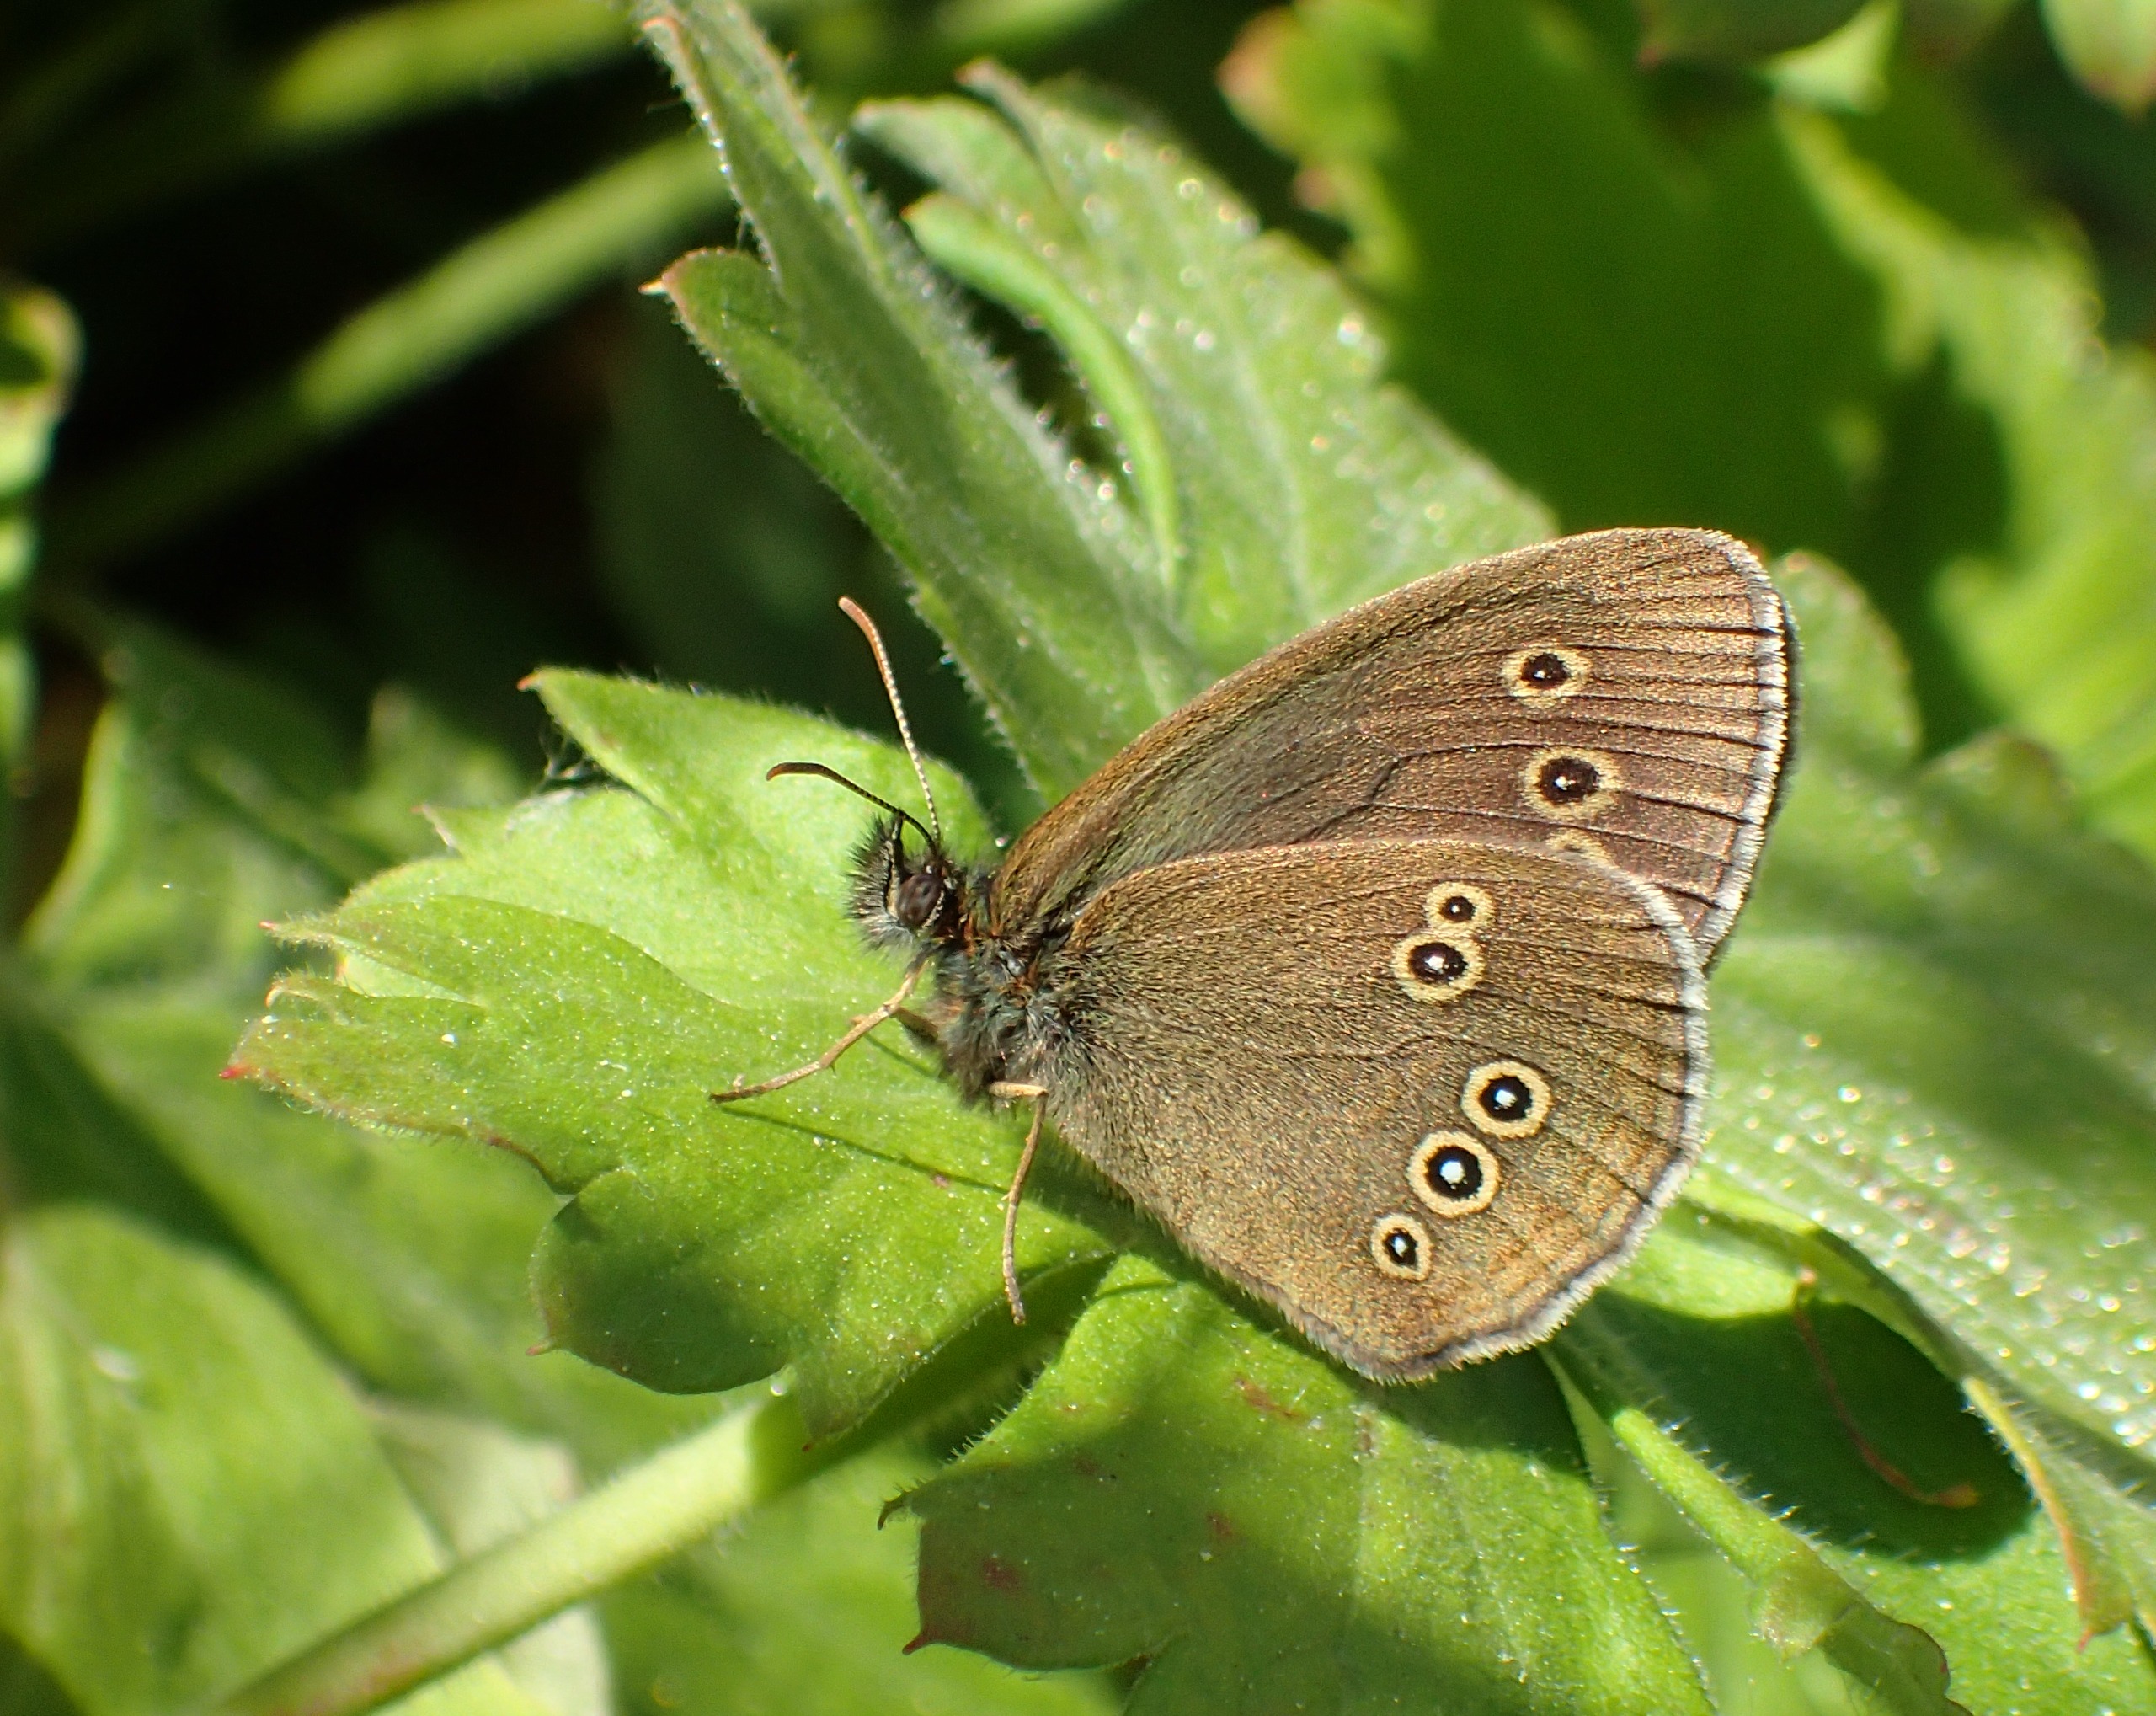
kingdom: Animalia
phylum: Arthropoda
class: Insecta
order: Lepidoptera
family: Nymphalidae
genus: Aphantopus
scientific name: Aphantopus hyperantus
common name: Engrandøje
